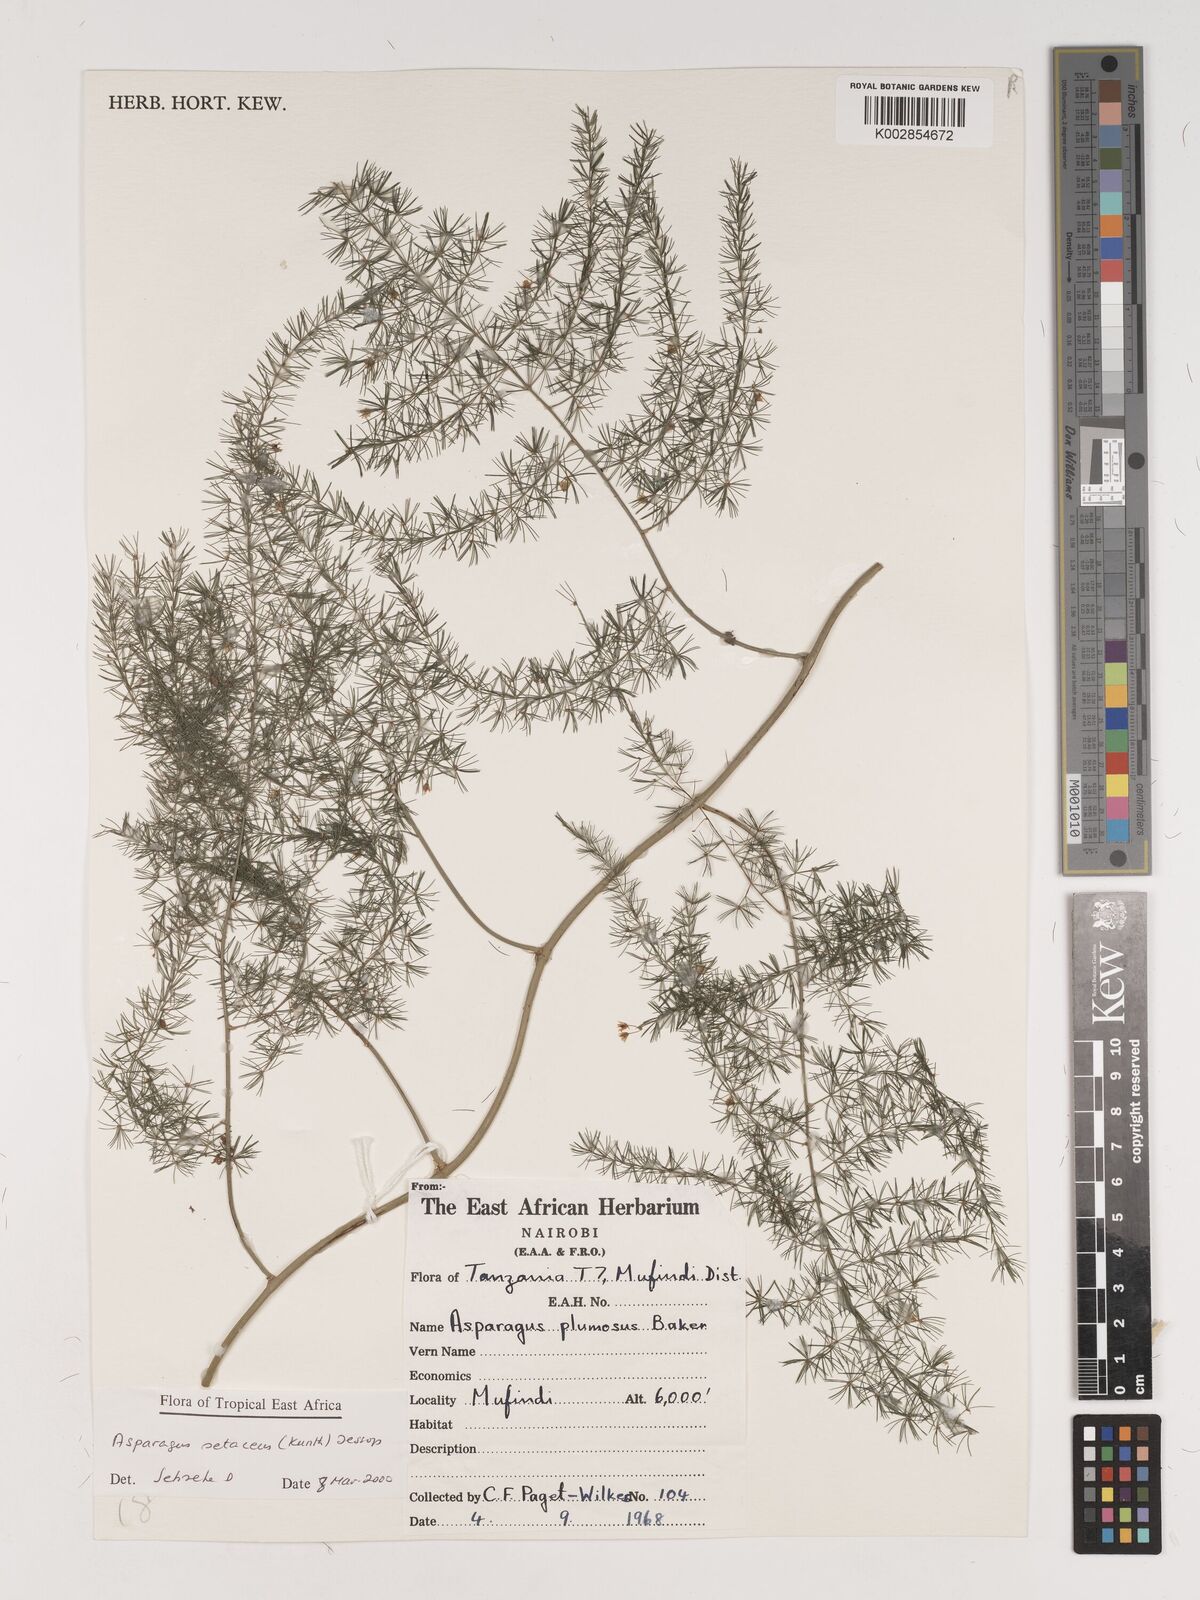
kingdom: Plantae
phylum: Tracheophyta
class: Liliopsida
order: Asparagales
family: Asparagaceae
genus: Asparagus
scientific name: Asparagus setaceus
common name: Common asparagus fern
